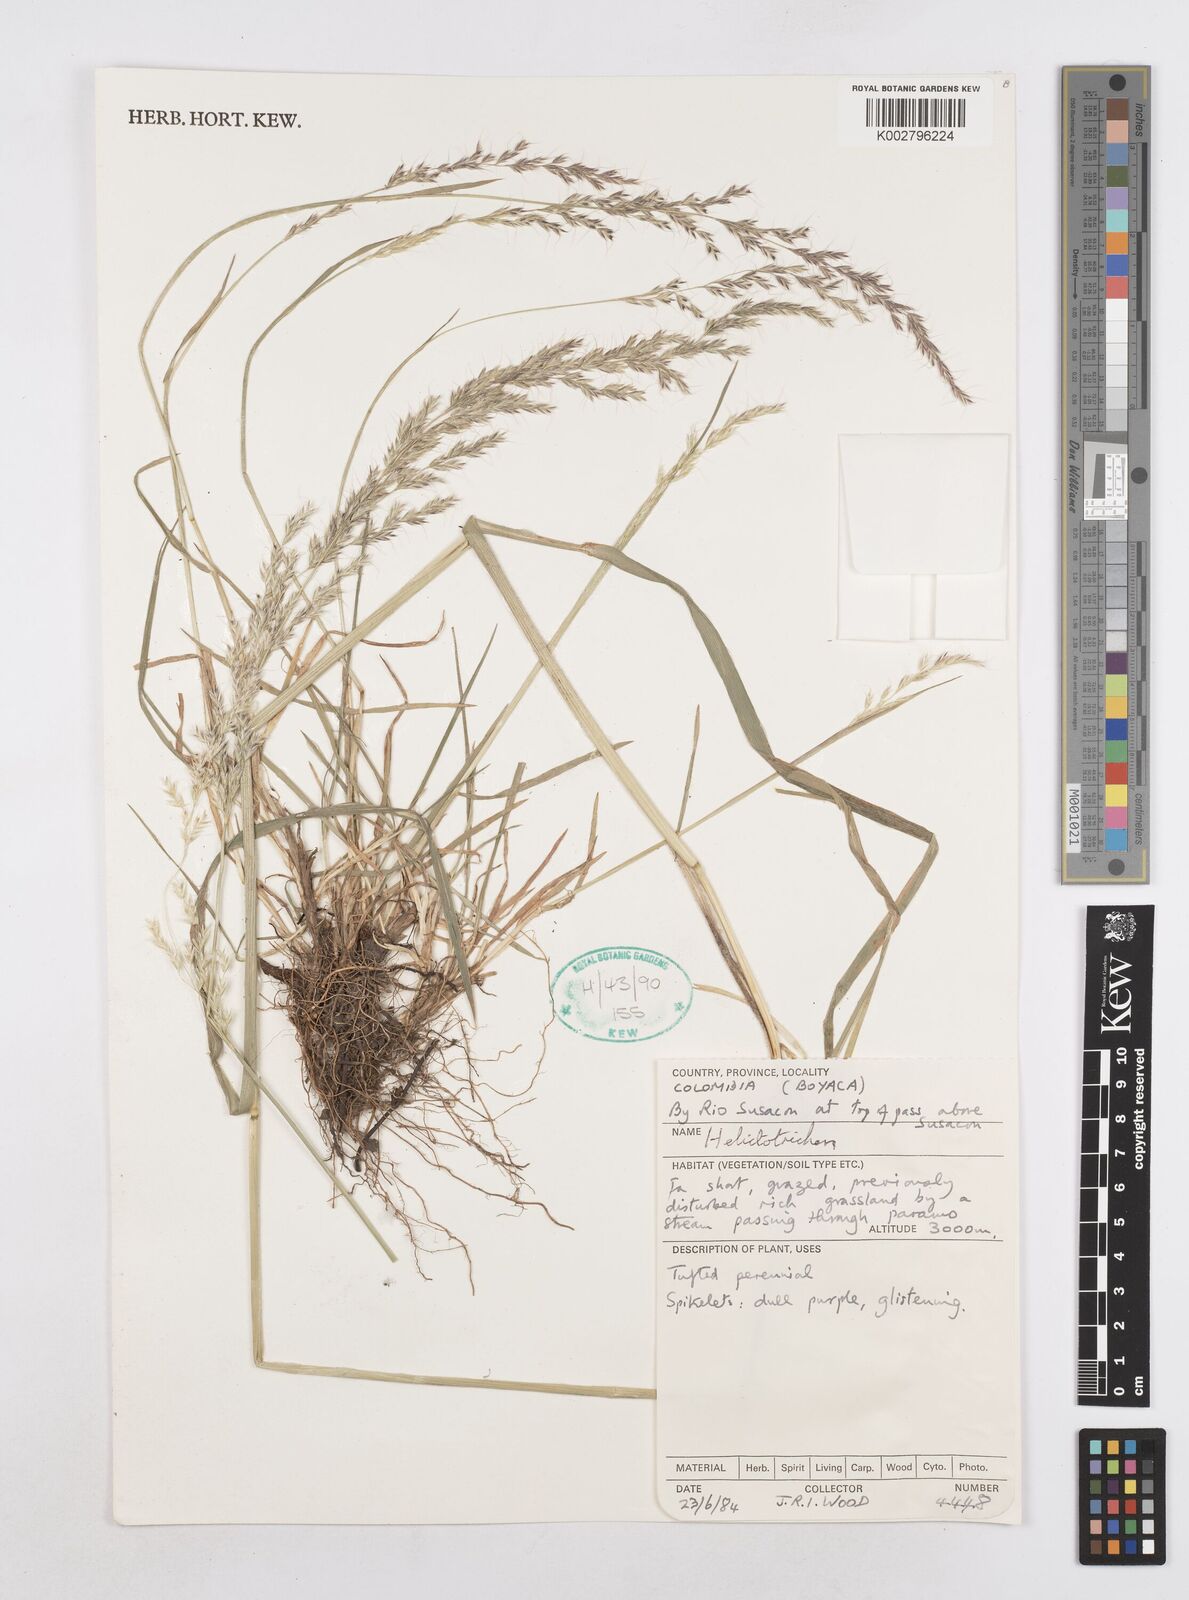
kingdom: Plantae
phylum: Tracheophyta
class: Liliopsida
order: Poales
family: Poaceae
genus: Helictotrichon
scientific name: Helictotrichon
